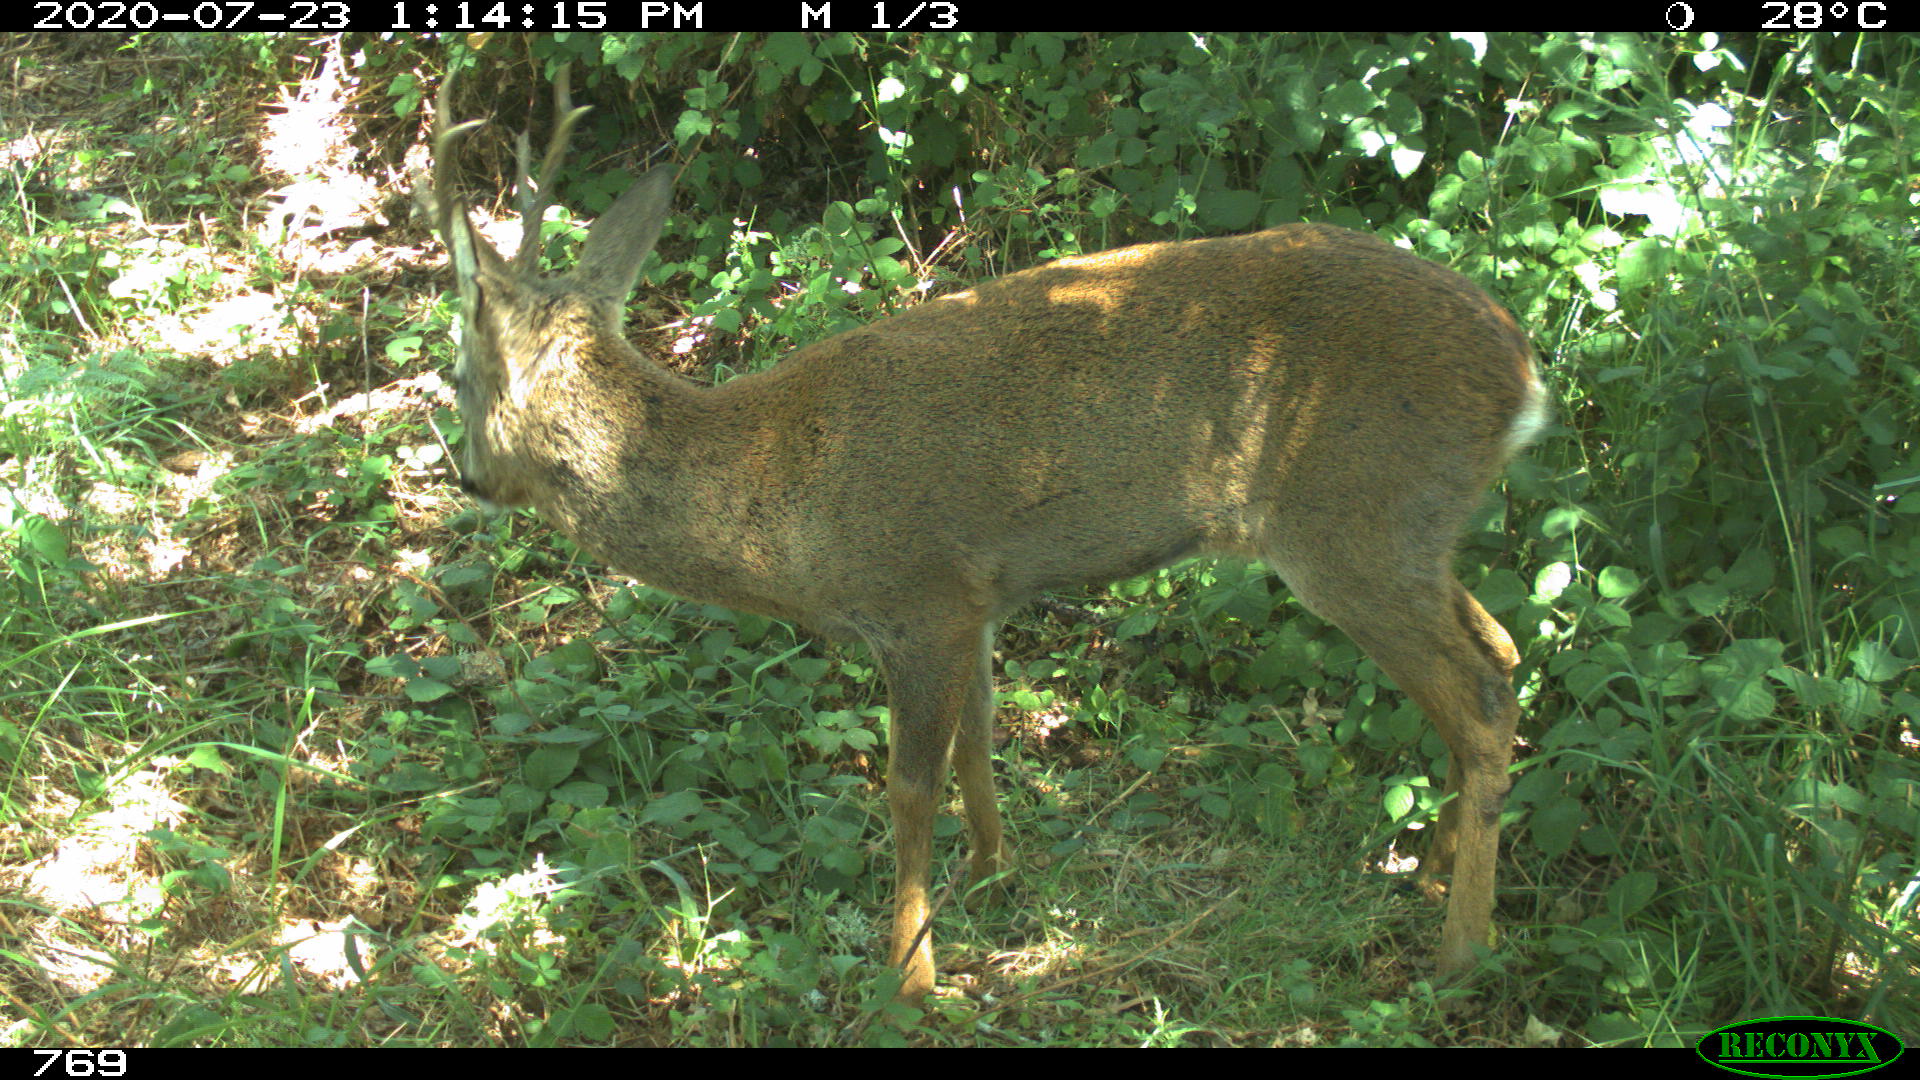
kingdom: Animalia
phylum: Chordata
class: Mammalia
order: Artiodactyla
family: Cervidae
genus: Capreolus
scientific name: Capreolus capreolus
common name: Western roe deer
